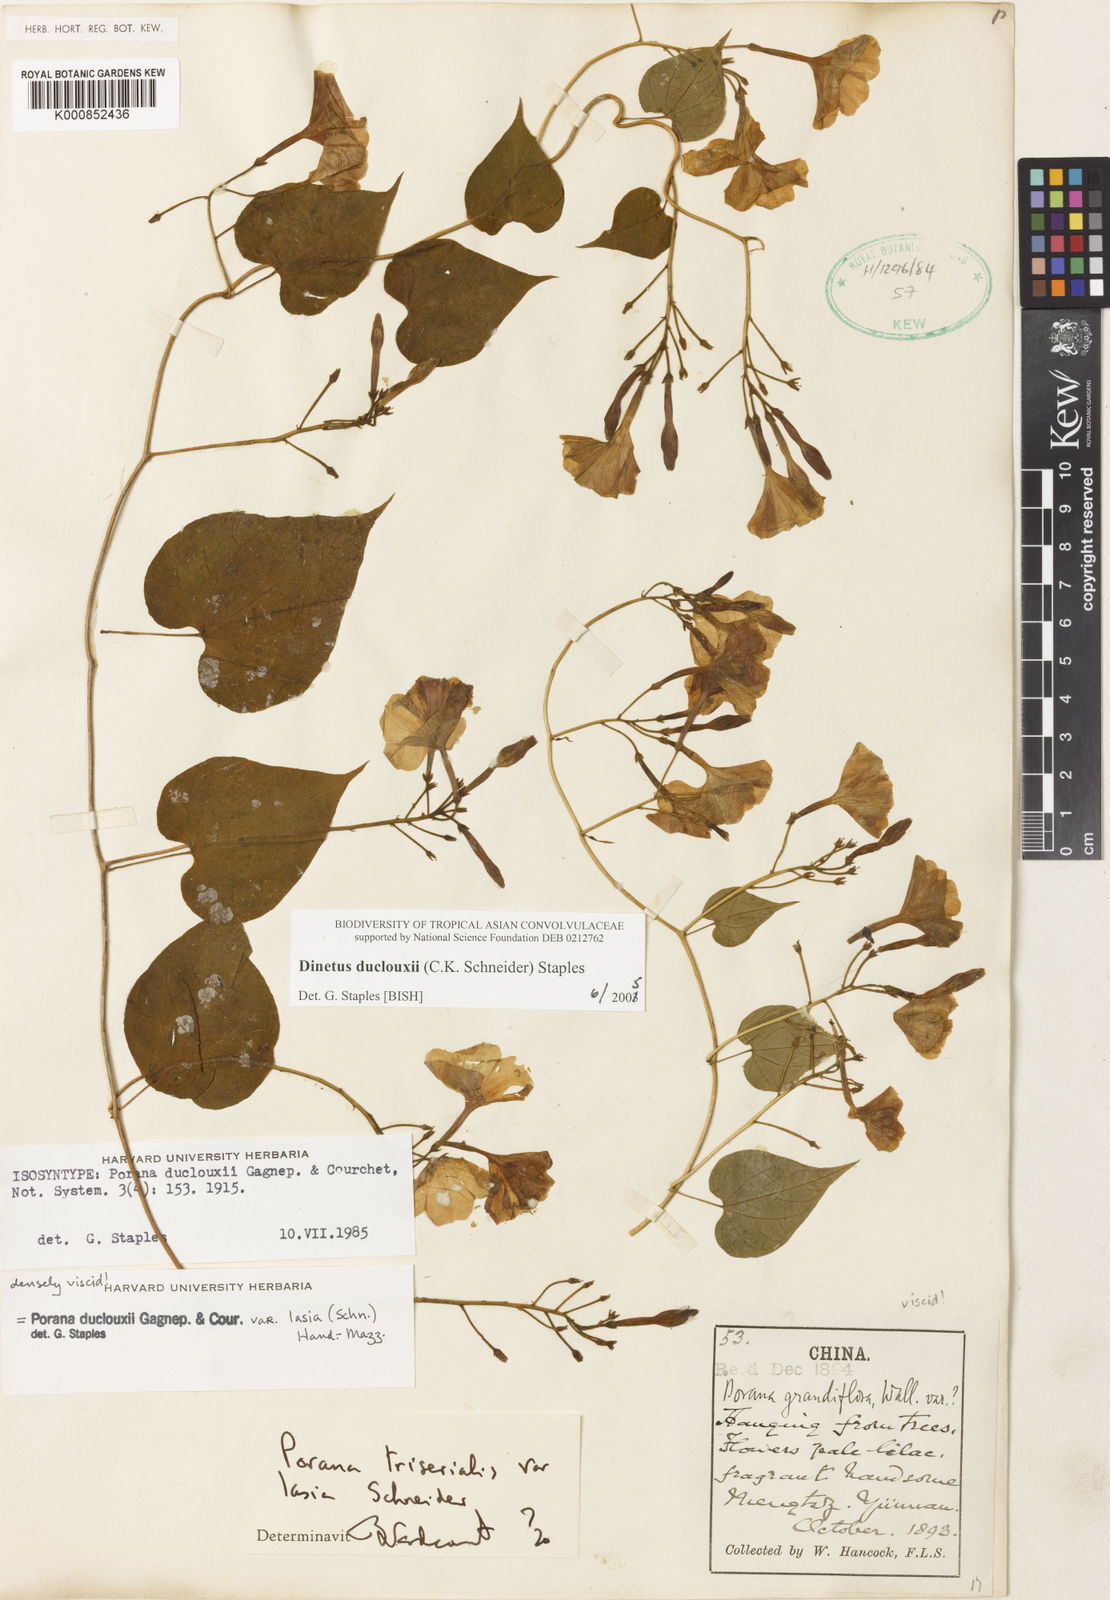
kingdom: Plantae
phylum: Tracheophyta
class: Magnoliopsida
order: Solanales
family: Convolvulaceae
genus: Dinetus
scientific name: Dinetus duclouxii
